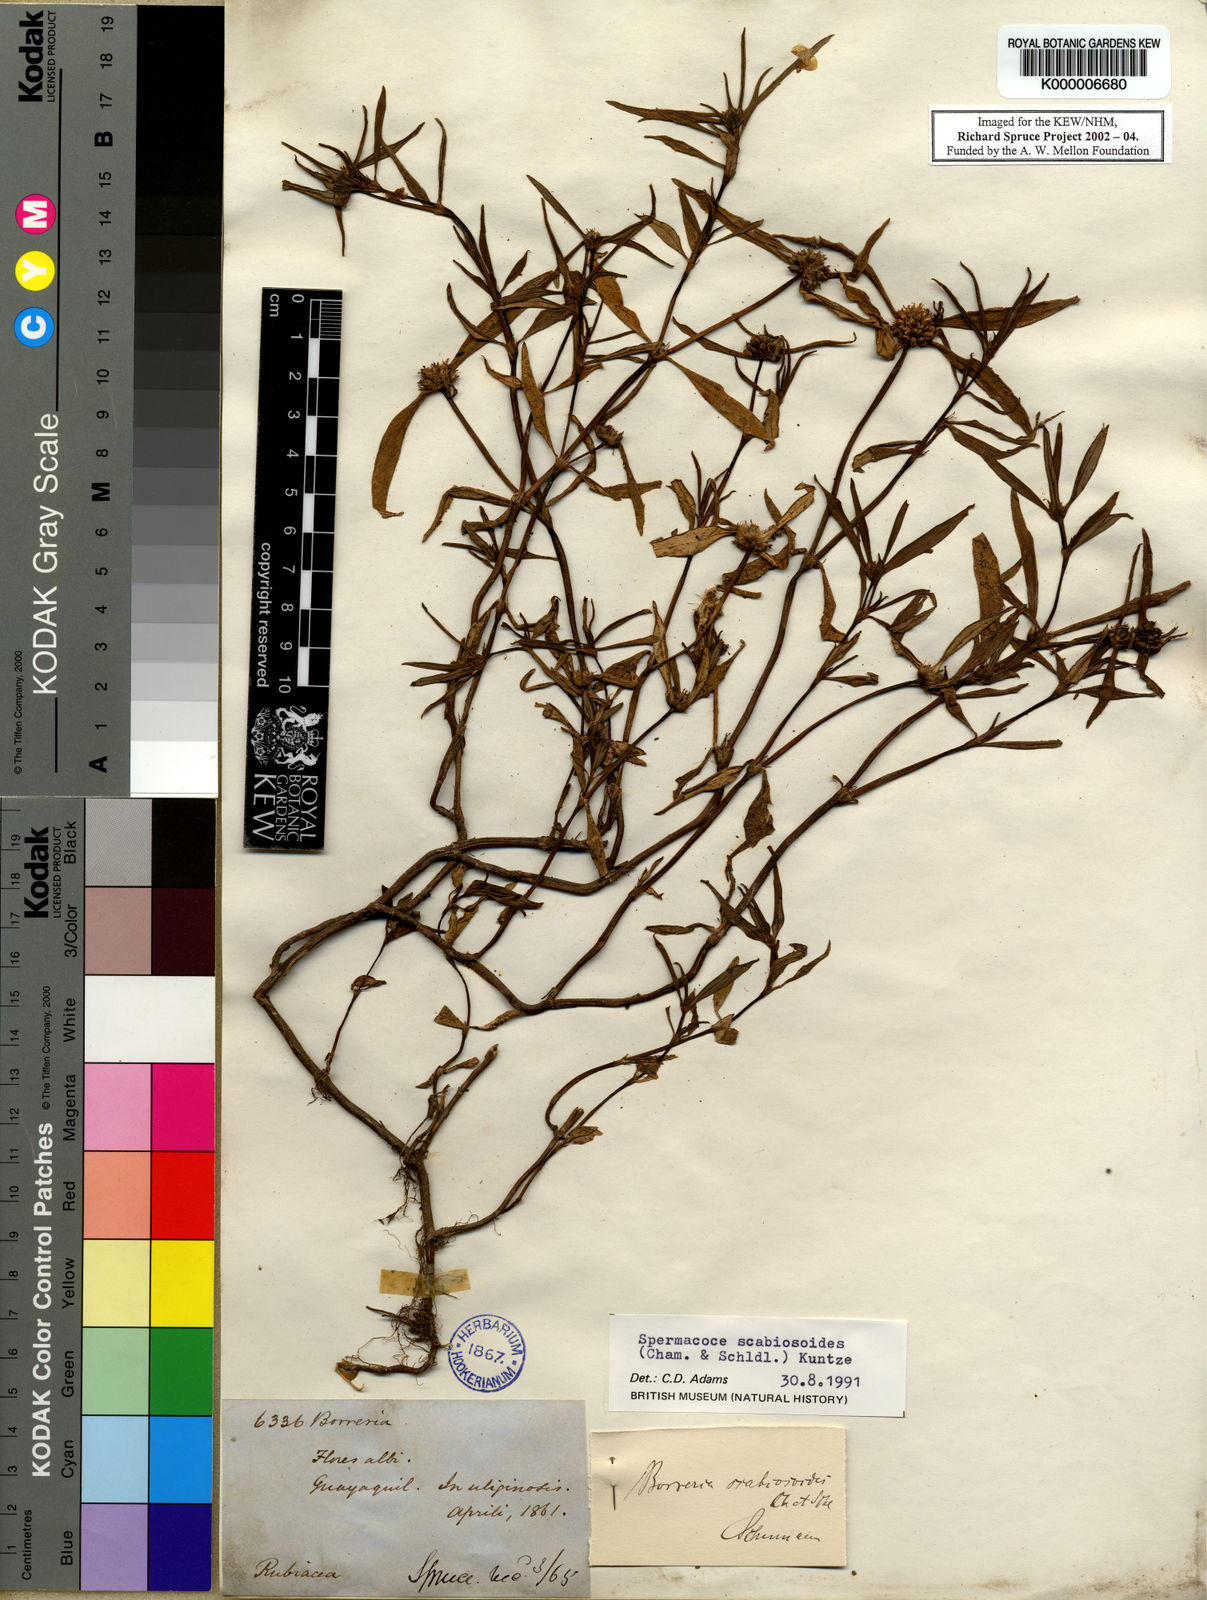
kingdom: Plantae
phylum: Tracheophyta
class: Magnoliopsida
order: Gentianales
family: Rubiaceae
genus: Spermacoce
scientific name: Spermacoce scabiosoides
